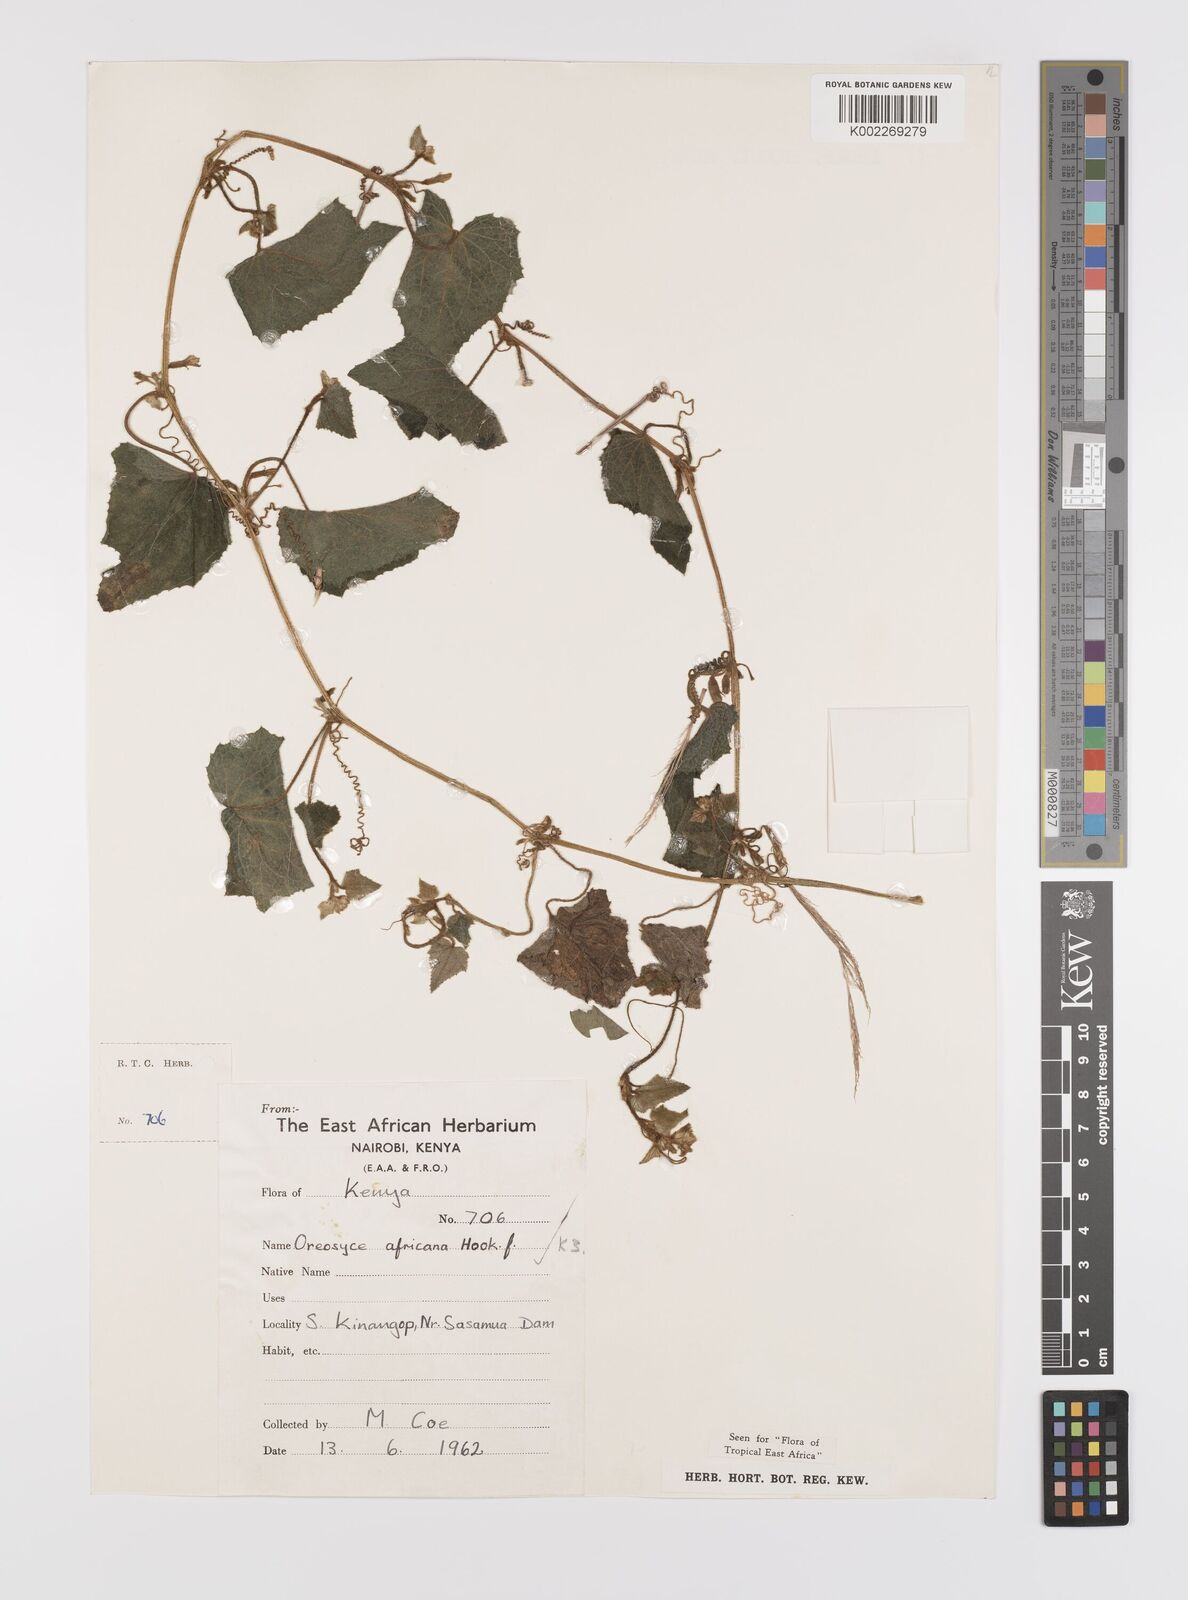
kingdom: Plantae
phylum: Tracheophyta
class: Magnoliopsida
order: Cucurbitales
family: Cucurbitaceae
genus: Cucumis
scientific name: Cucumis oreosyce
